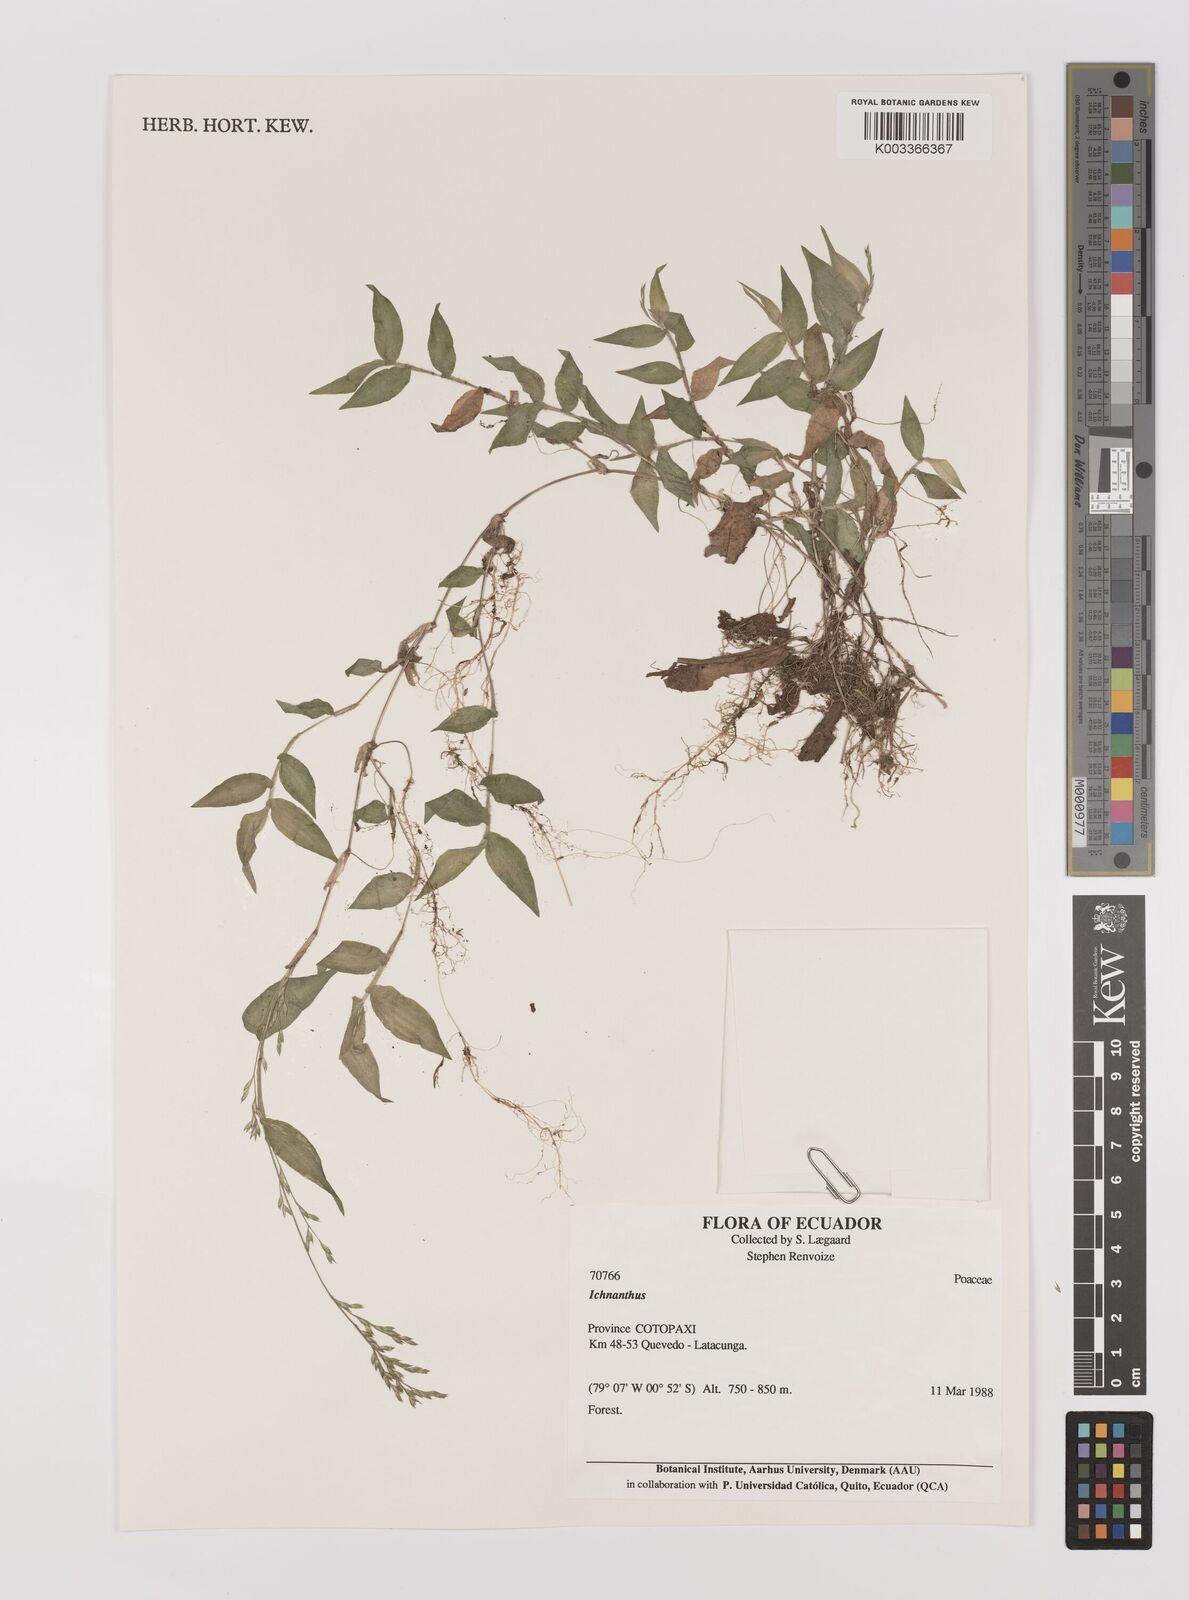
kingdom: Plantae
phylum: Tracheophyta
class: Liliopsida
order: Poales
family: Poaceae
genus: Ichnanthus
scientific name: Ichnanthus tenuis
